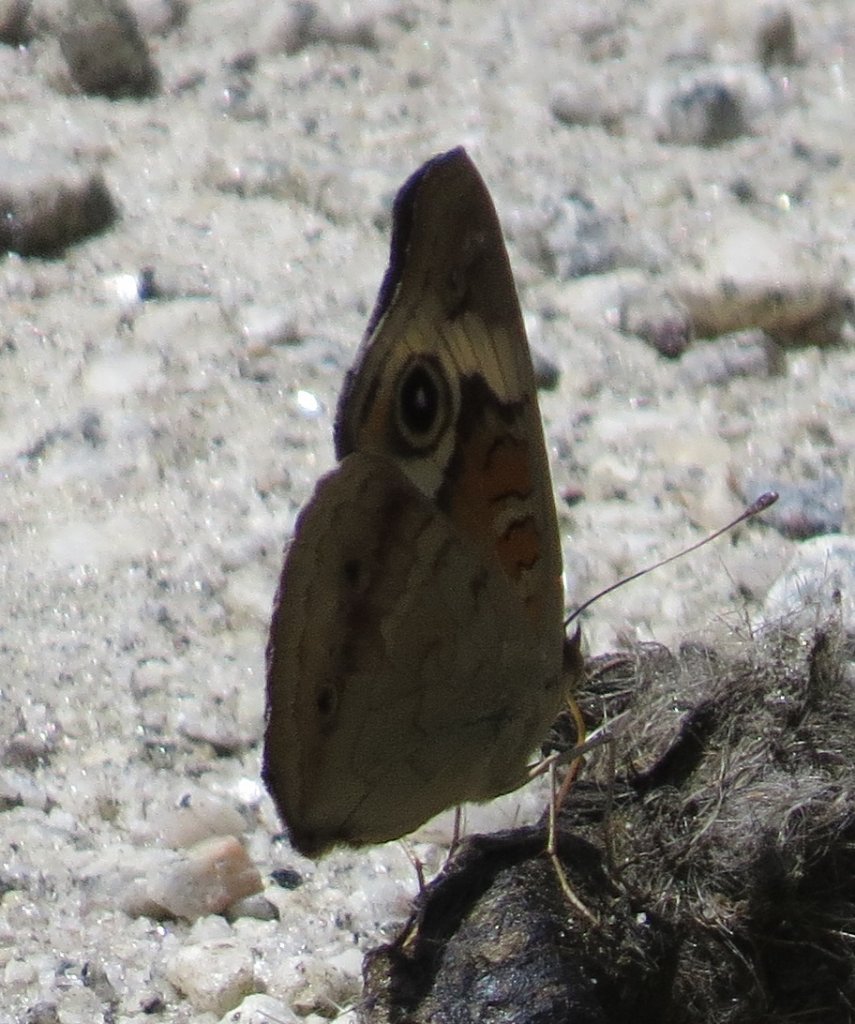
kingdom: Animalia
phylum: Arthropoda
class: Insecta
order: Lepidoptera
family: Nymphalidae
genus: Junonia
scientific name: Junonia coenia
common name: Common Buckeye
